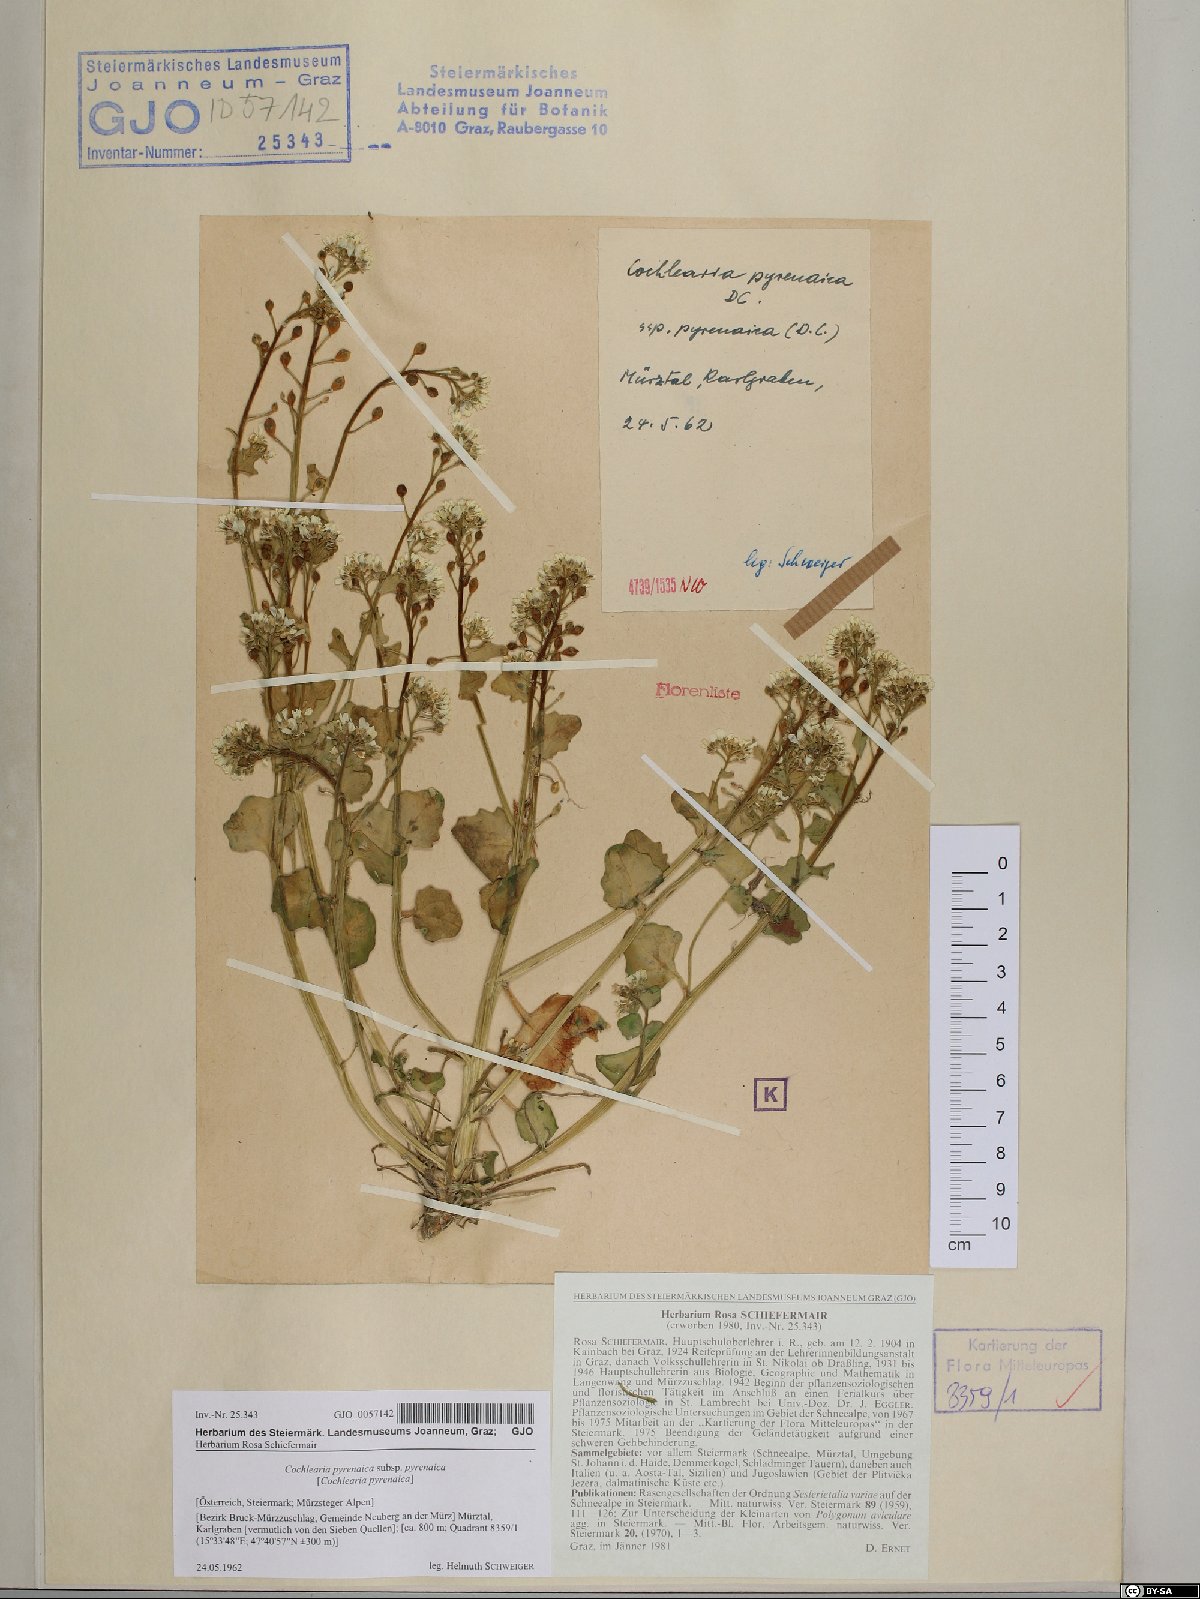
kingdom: Plantae
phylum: Tracheophyta
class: Magnoliopsida
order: Brassicales
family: Brassicaceae
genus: Cochlearia
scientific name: Cochlearia pyrenaica
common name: Upland scurvy-grass
